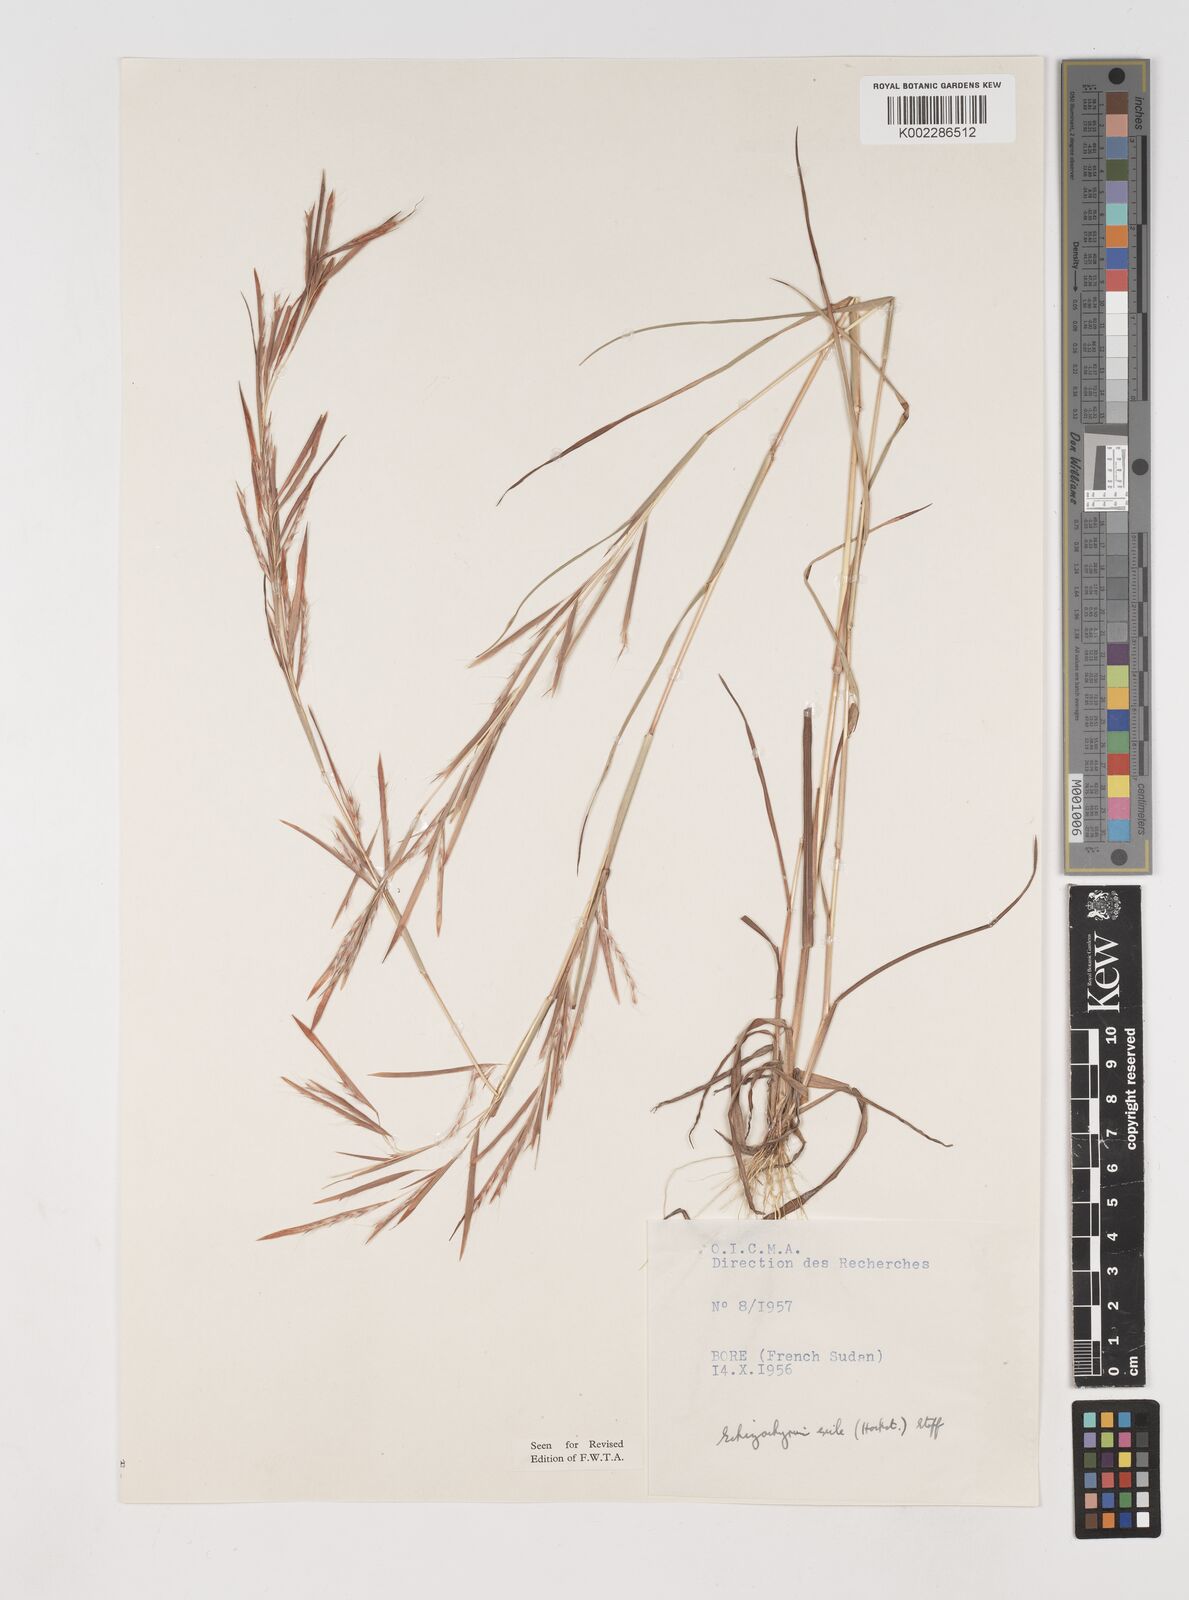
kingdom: Plantae
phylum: Tracheophyta
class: Liliopsida
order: Poales
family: Poaceae
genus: Schizachyrium
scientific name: Schizachyrium exile
